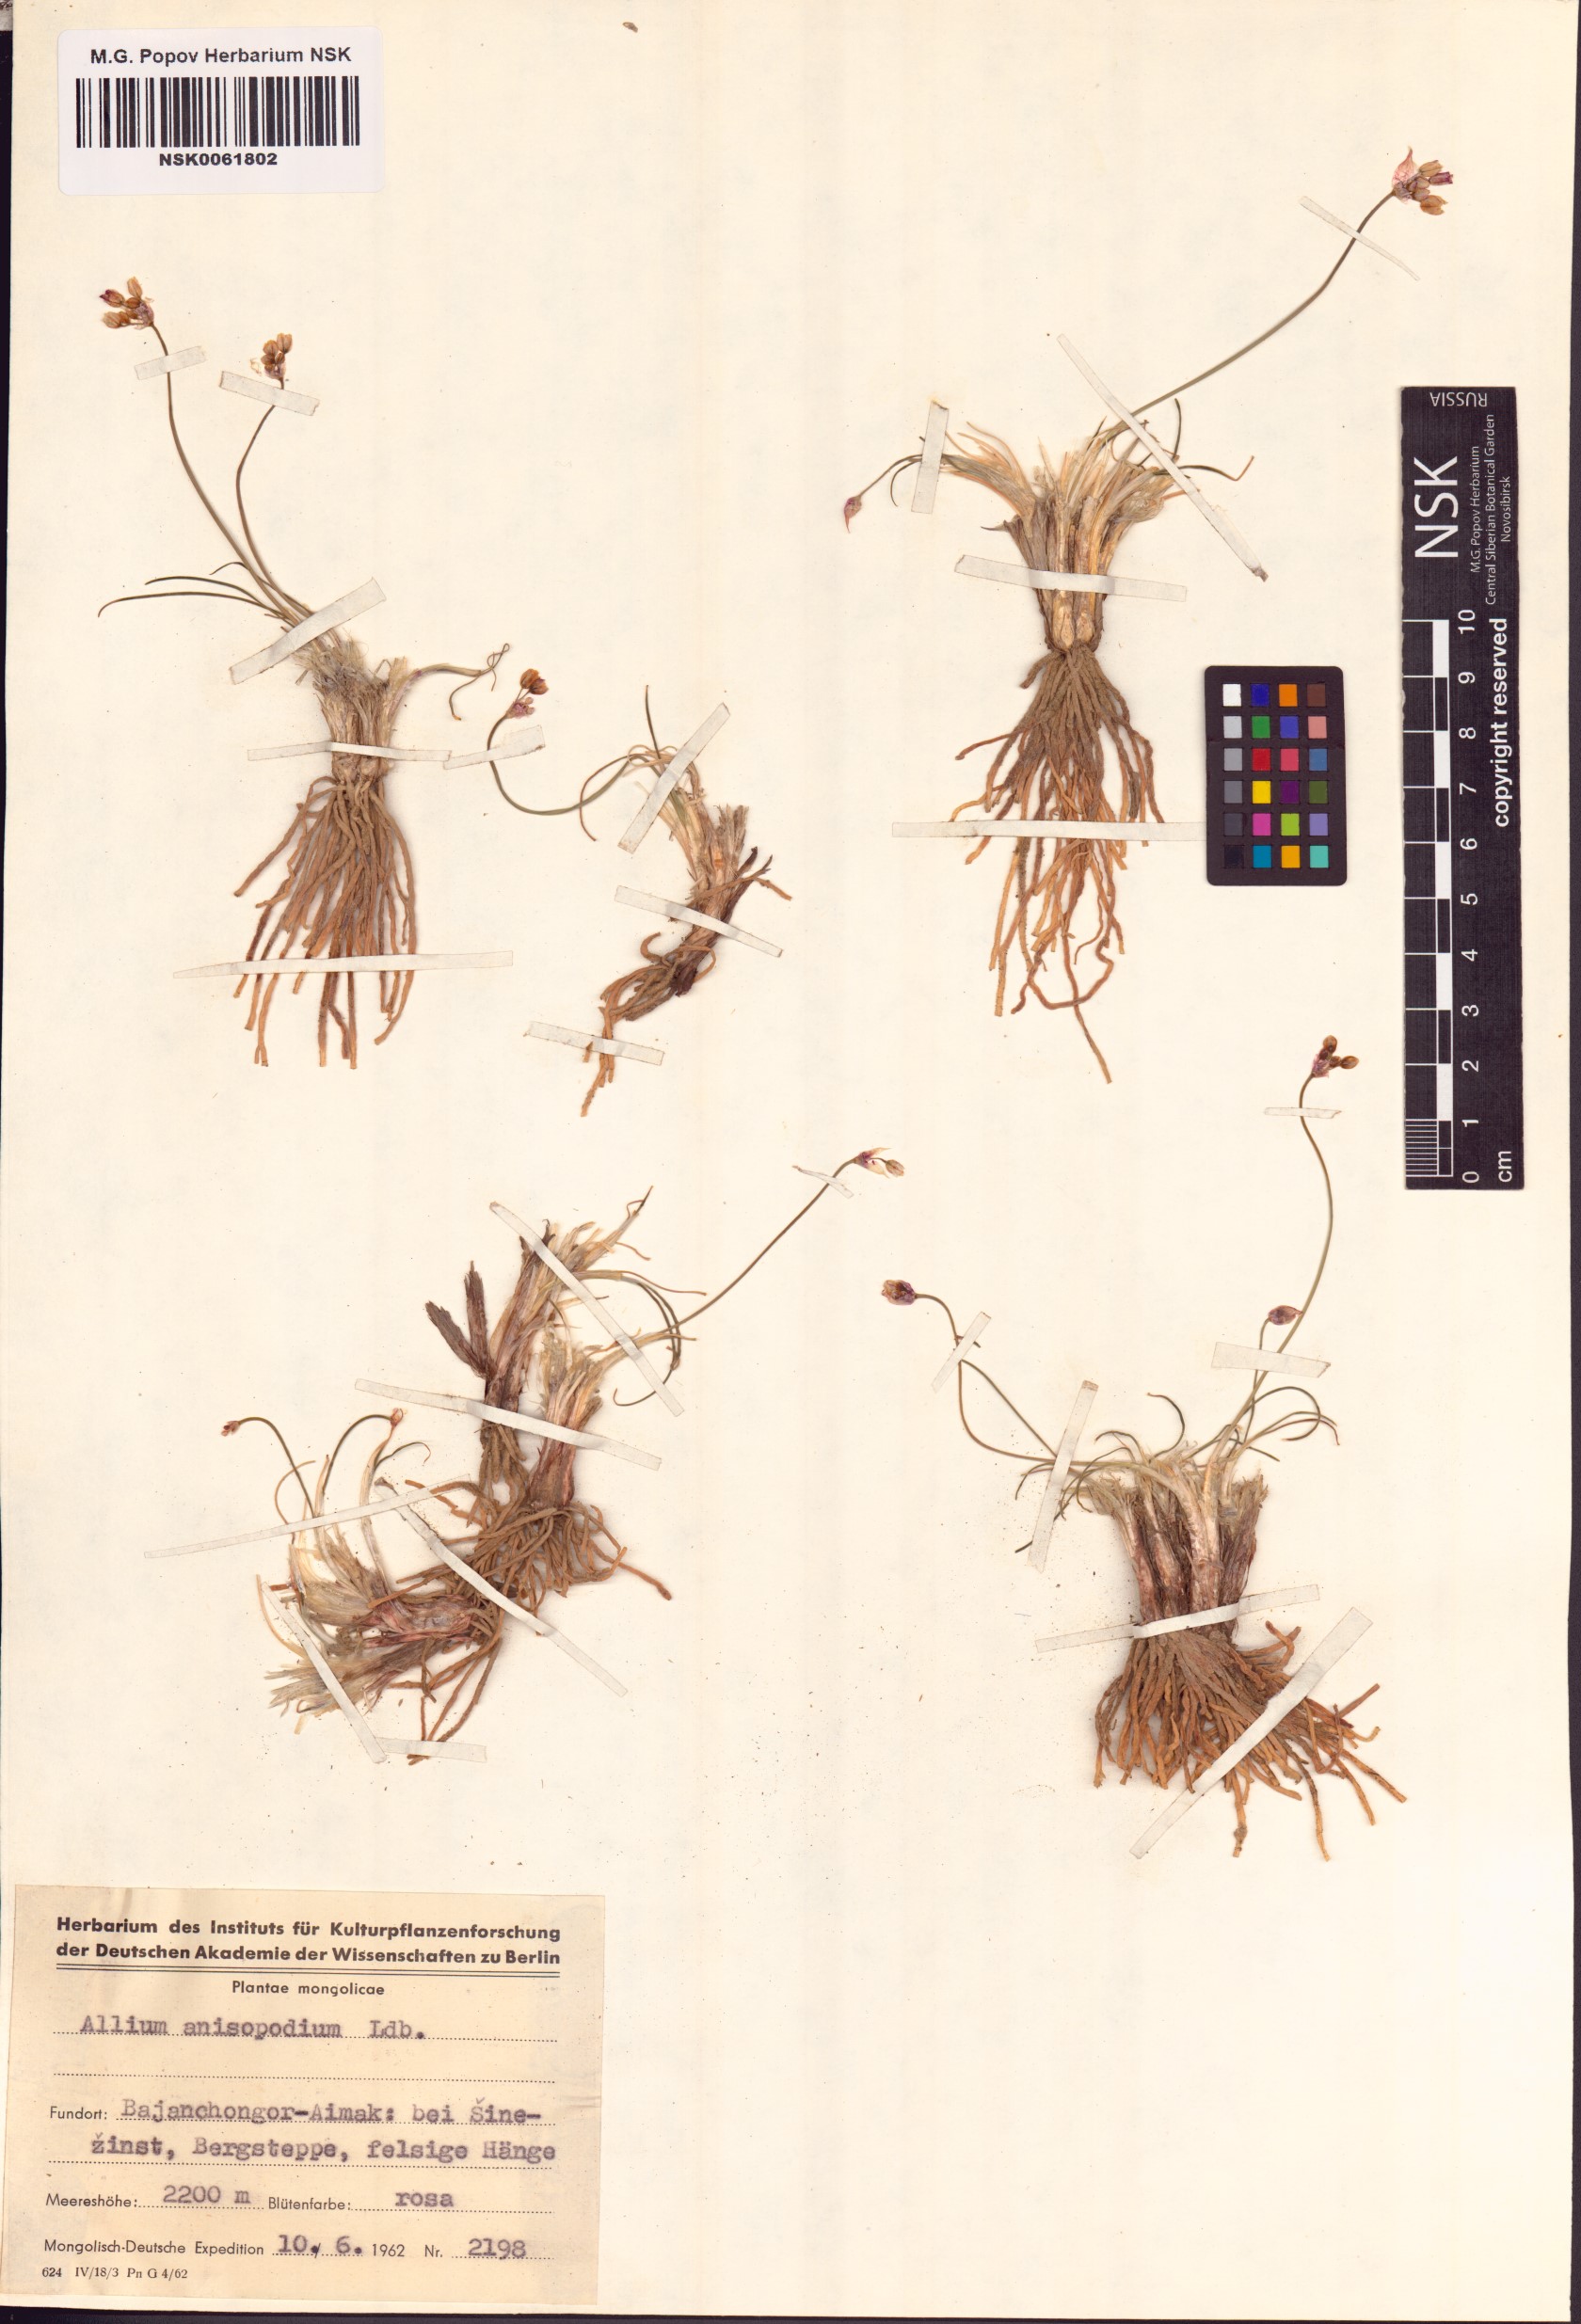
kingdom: Plantae
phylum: Tracheophyta
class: Liliopsida
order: Asparagales
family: Amaryllidaceae
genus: Allium
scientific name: Allium anisopodium
